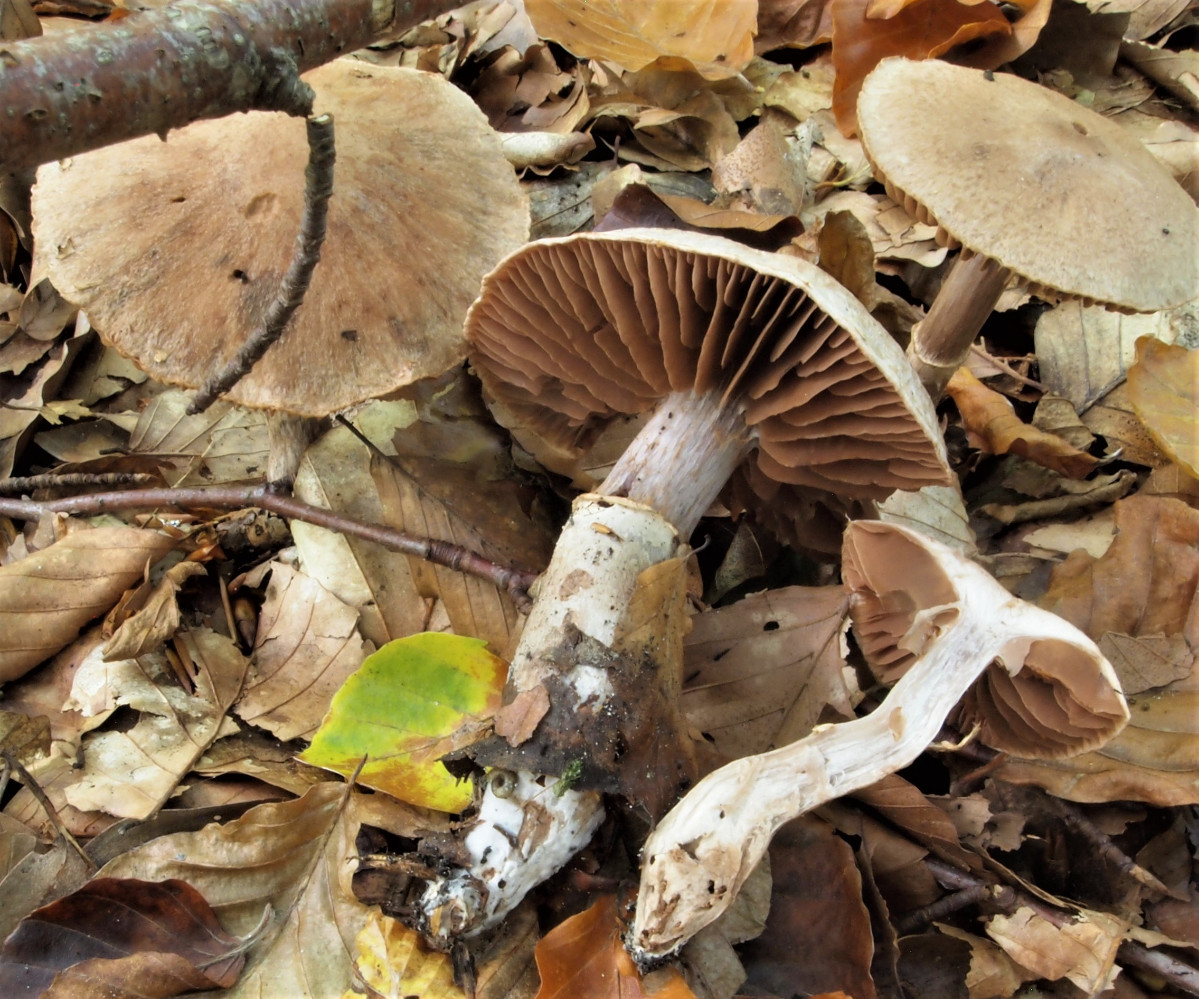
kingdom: Fungi
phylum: Basidiomycota
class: Agaricomycetes
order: Agaricales
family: Cortinariaceae
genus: Cortinarius
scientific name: Cortinarius torvus
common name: champignonagtig slørhat
